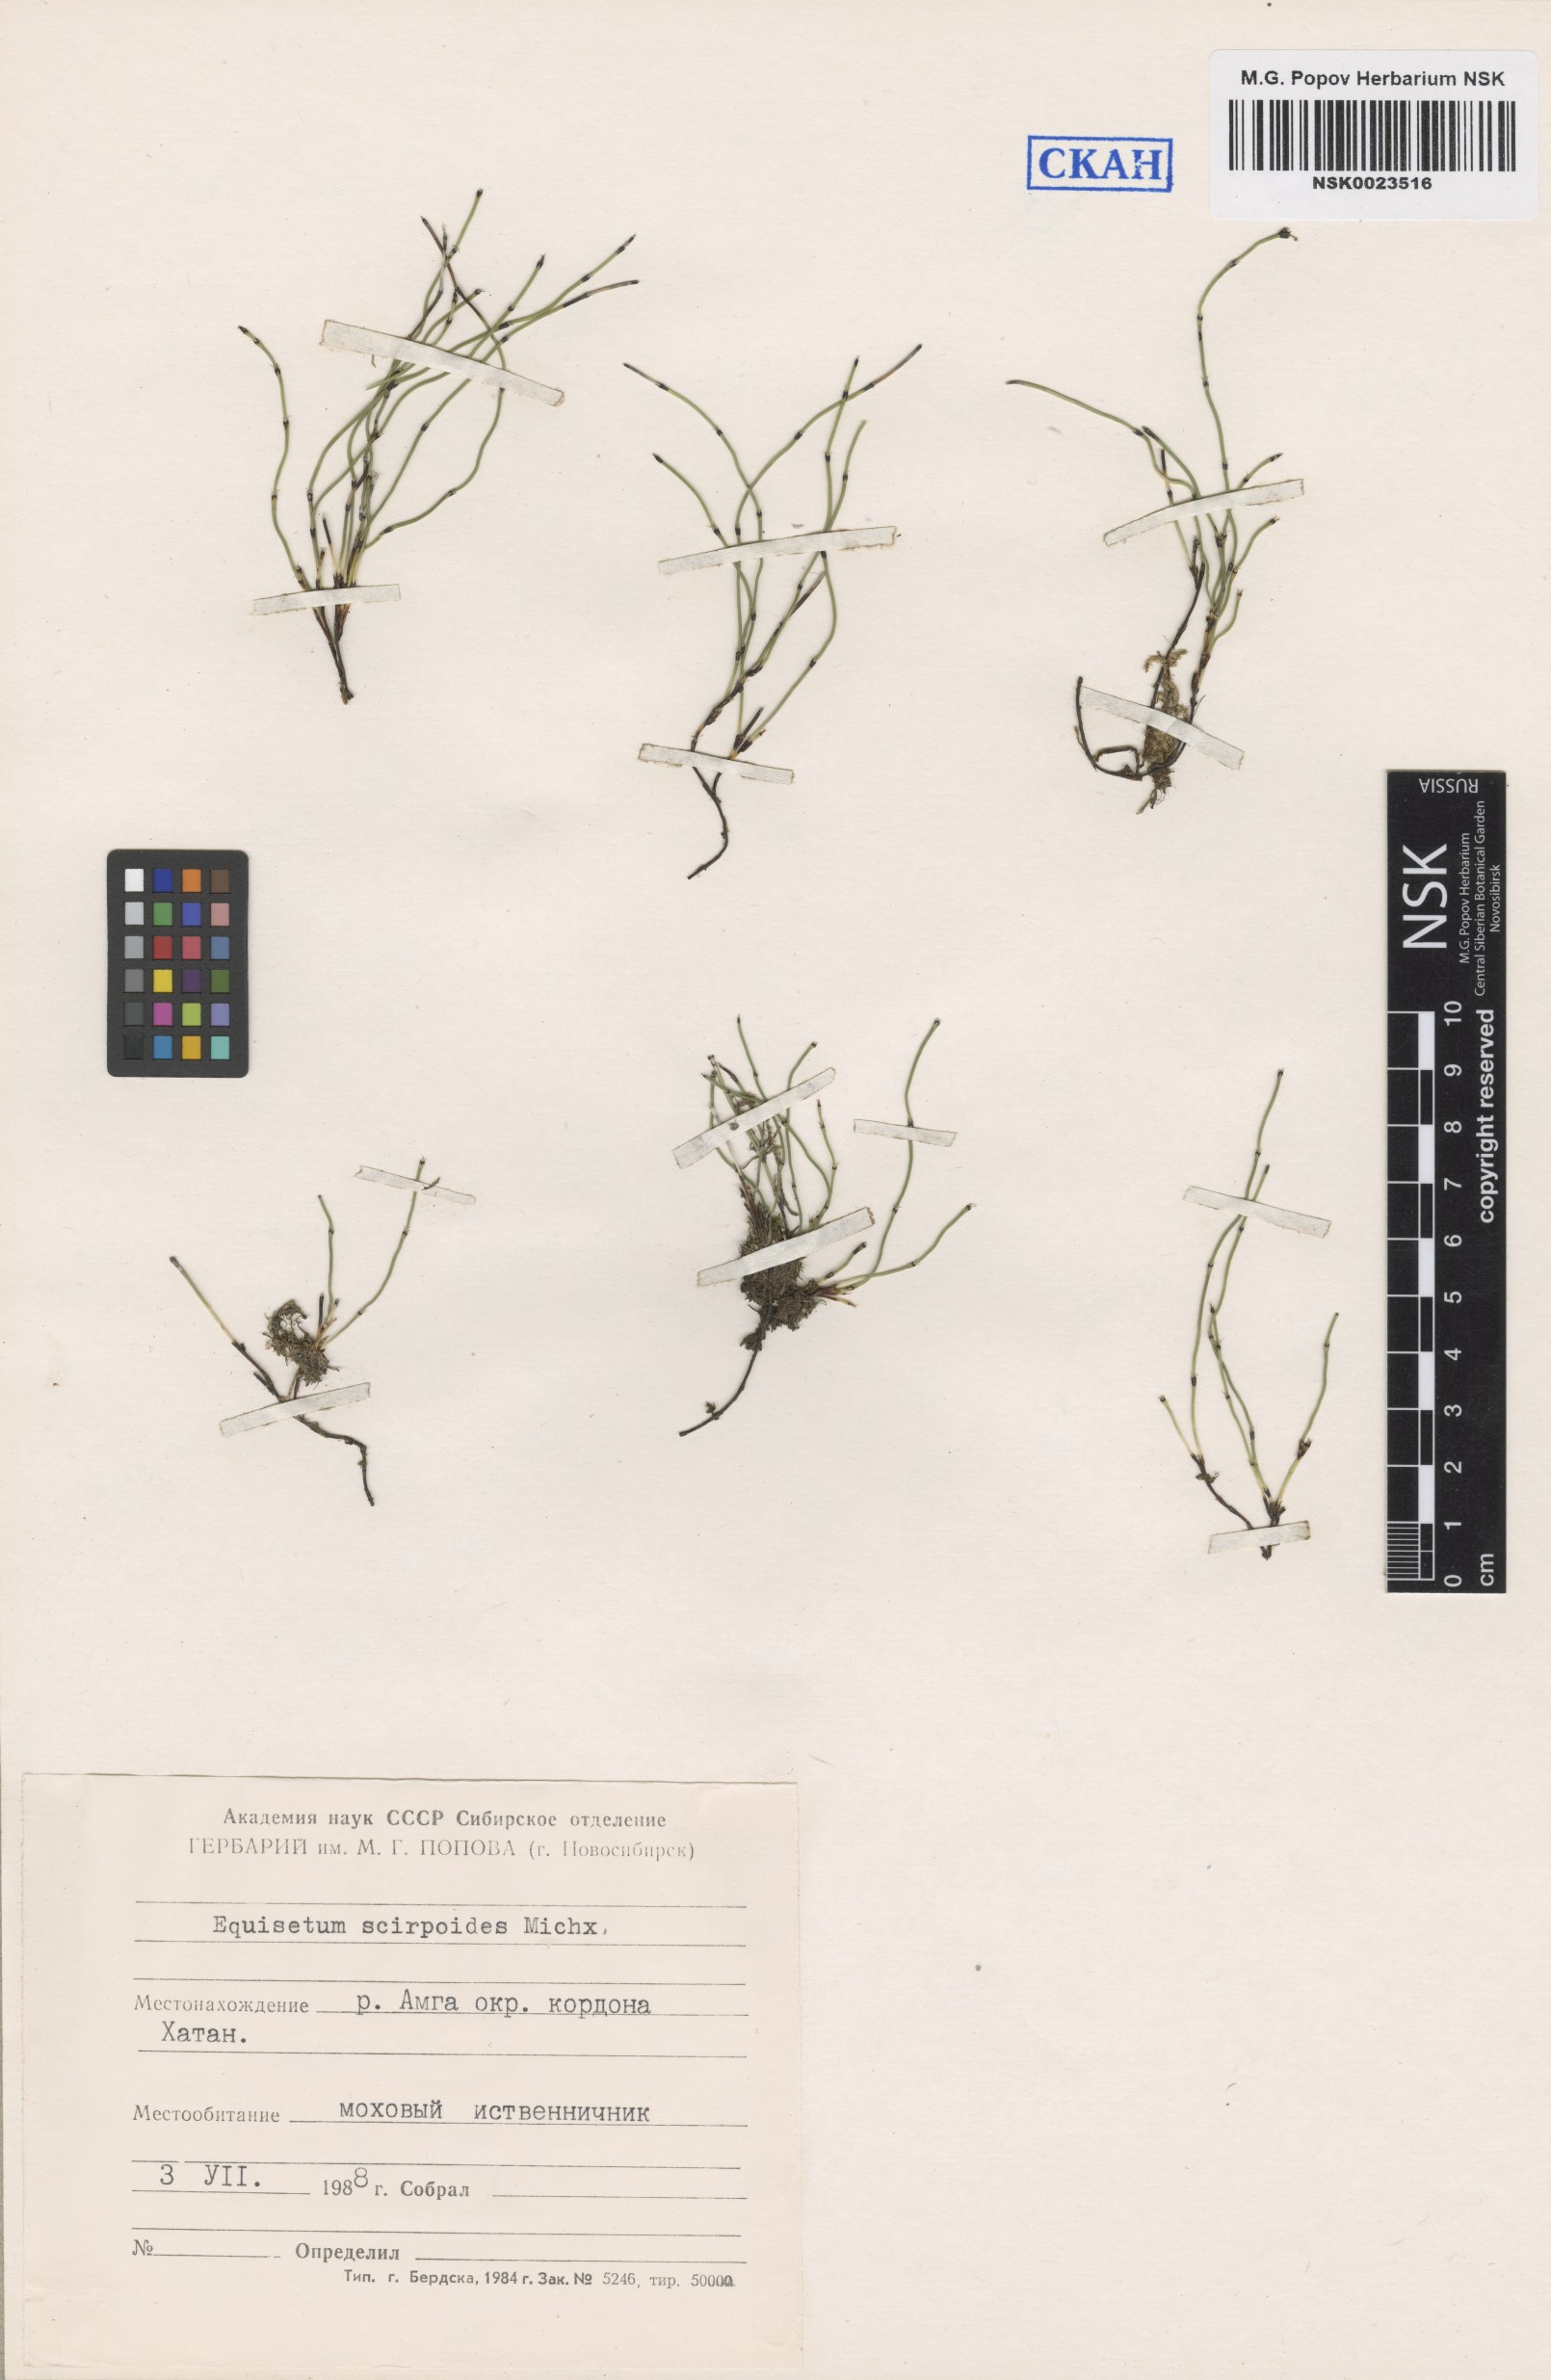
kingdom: Plantae
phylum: Tracheophyta
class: Polypodiopsida
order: Equisetales
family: Equisetaceae
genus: Equisetum
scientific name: Equisetum scirpoides
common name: Delicate horsetail
